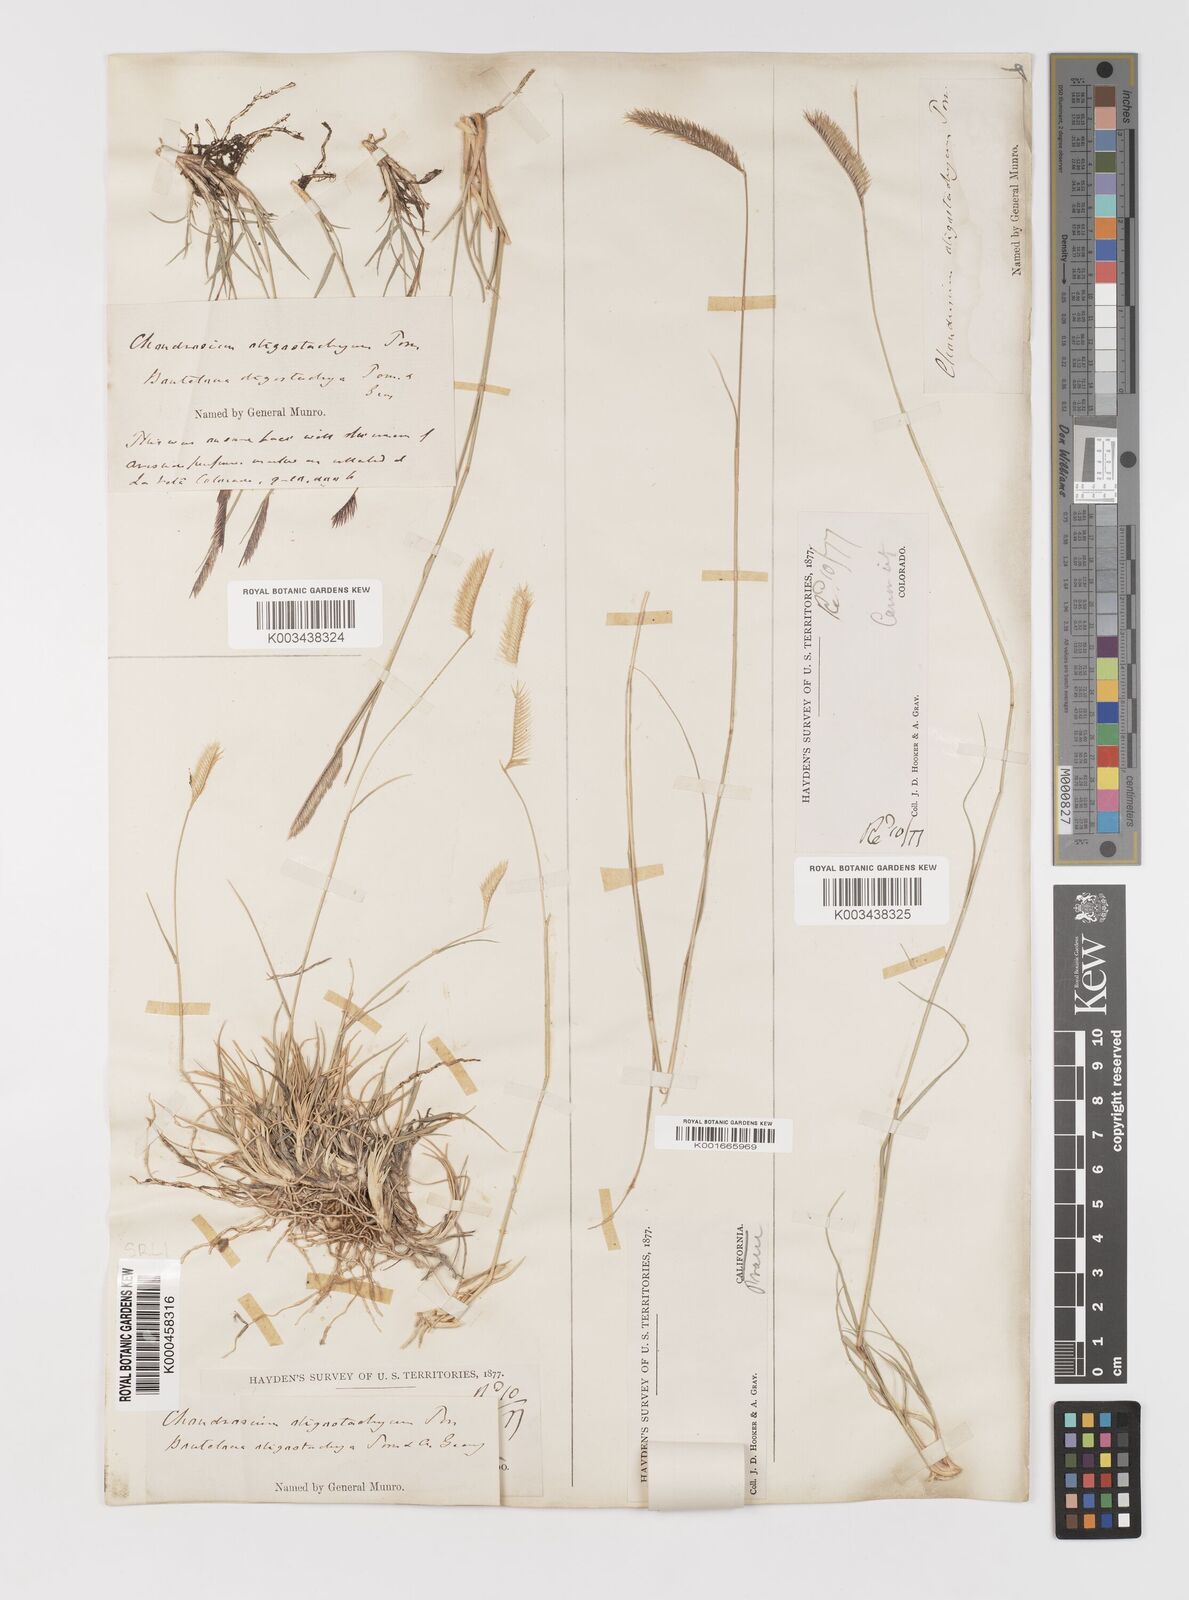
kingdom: Plantae
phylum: Tracheophyta
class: Liliopsida
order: Poales
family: Poaceae
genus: Bouteloua
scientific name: Bouteloua
